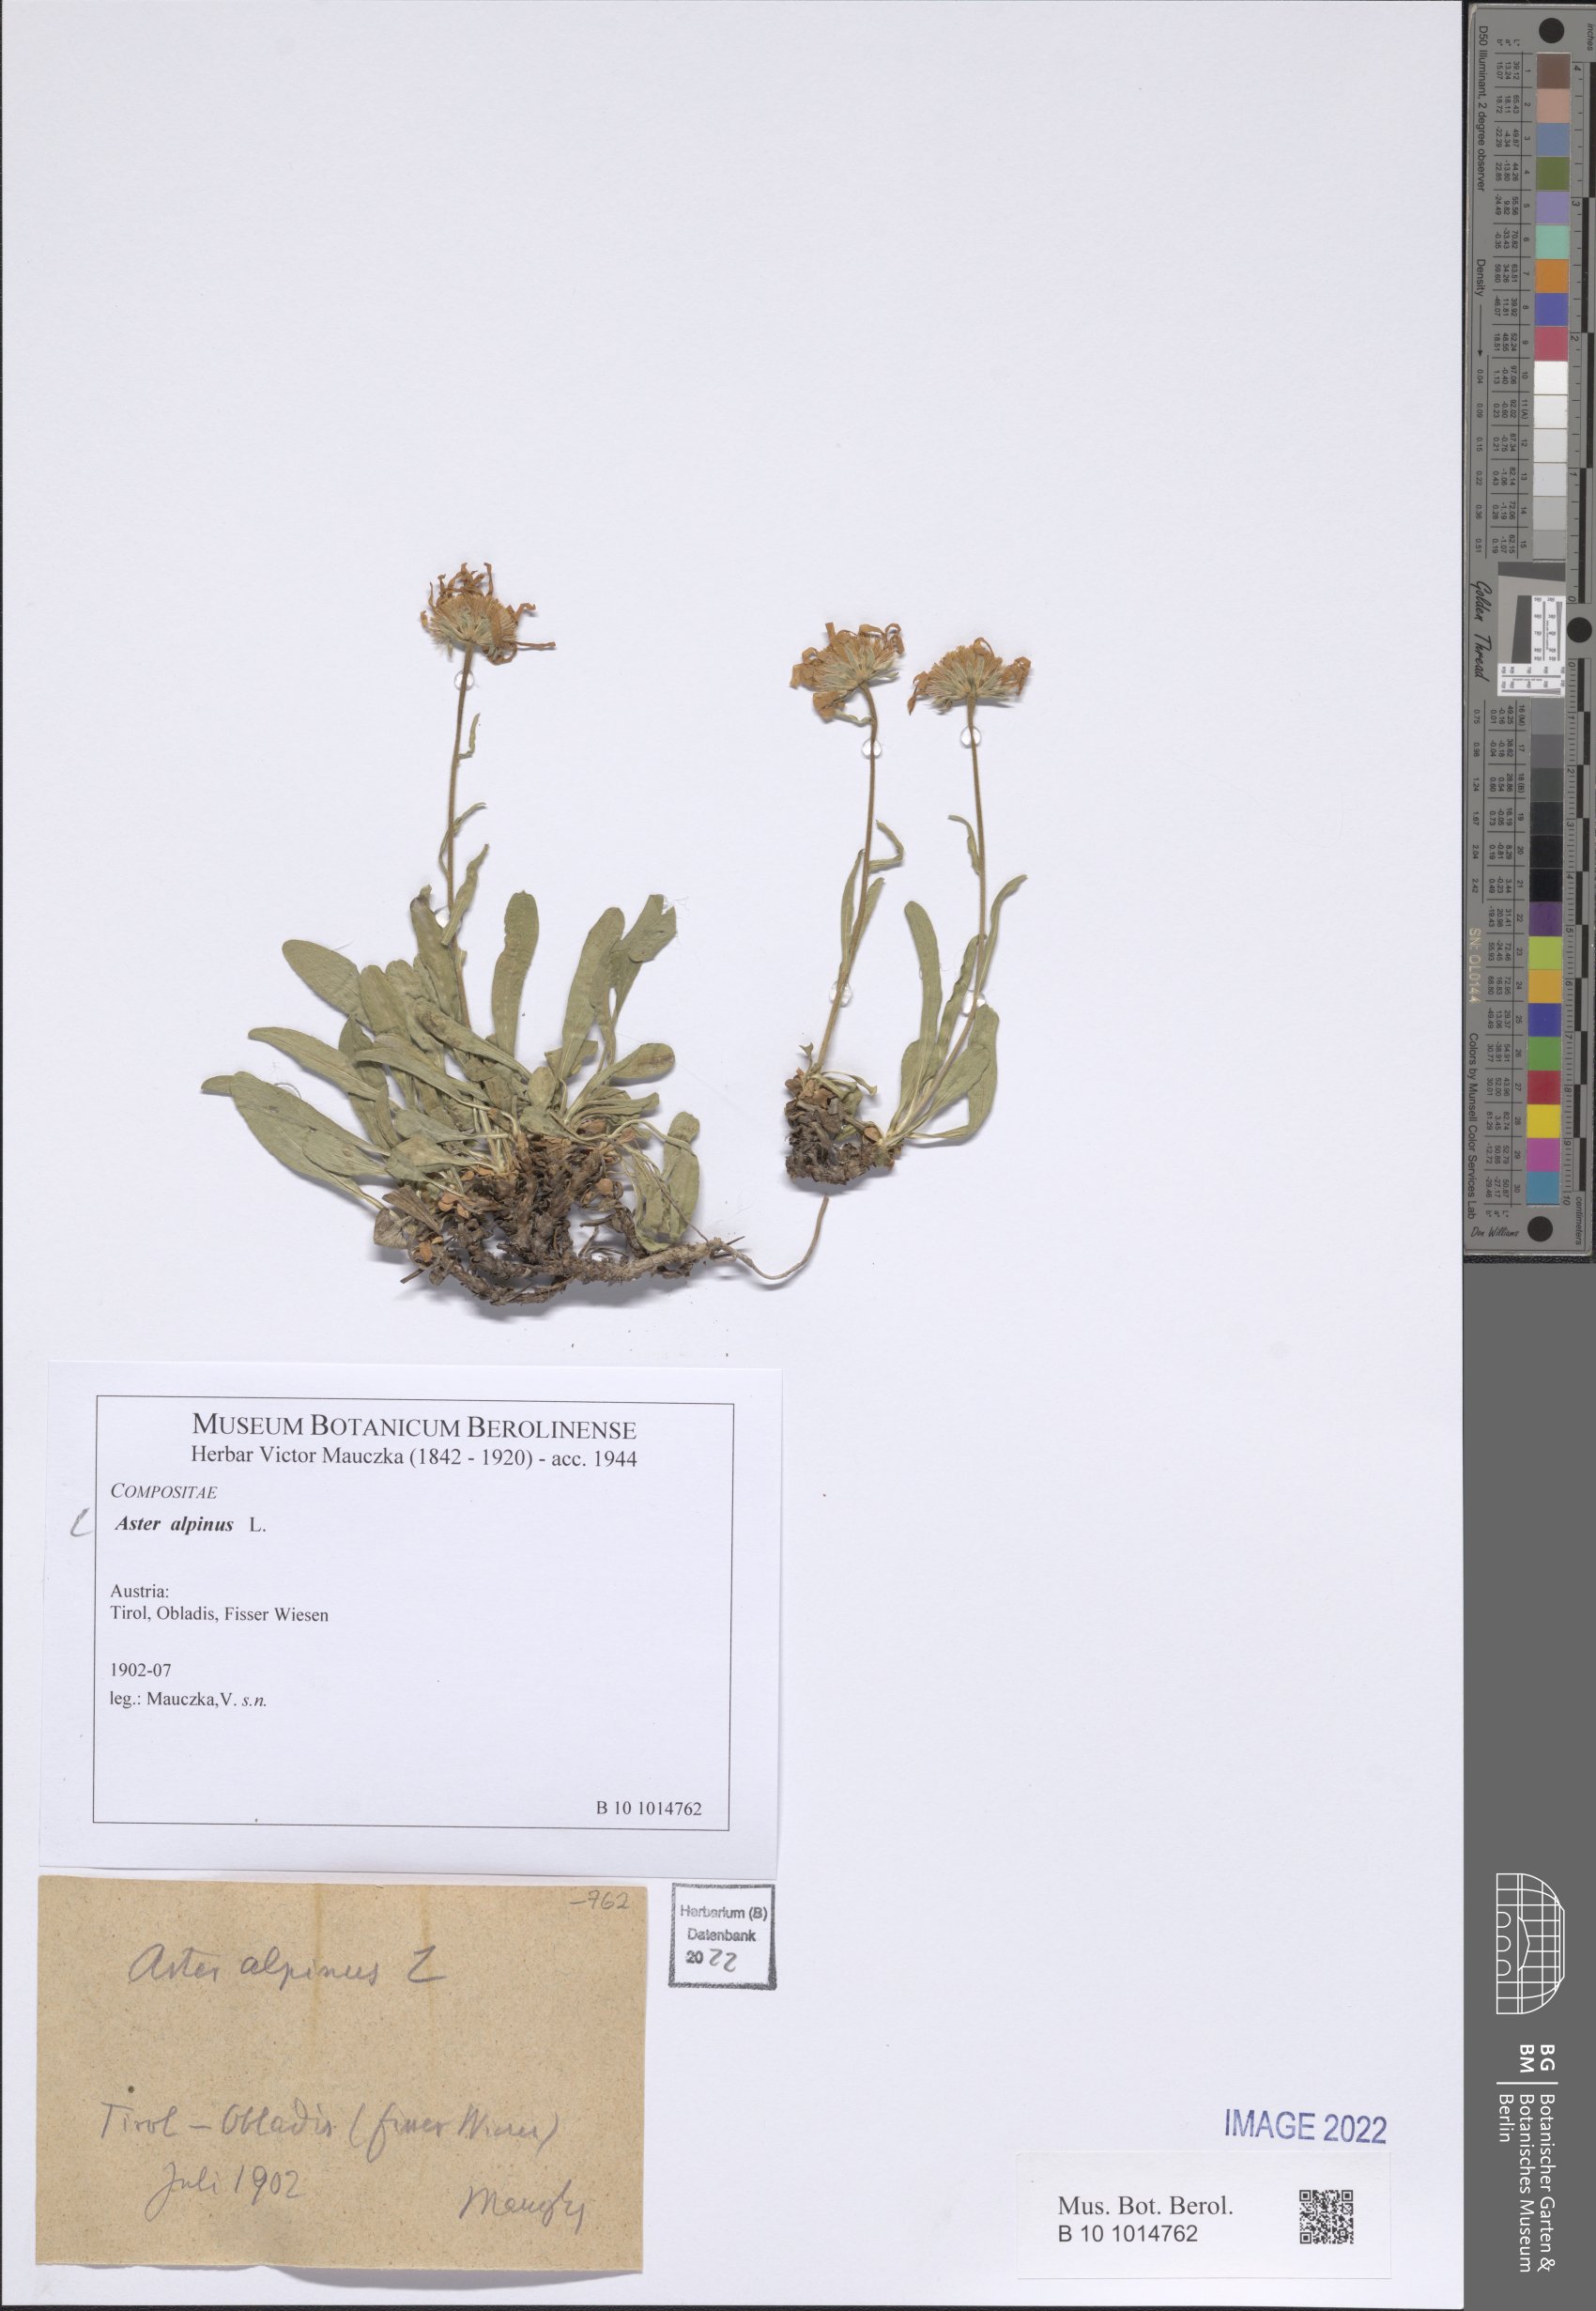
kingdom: Plantae
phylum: Tracheophyta
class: Magnoliopsida
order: Asterales
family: Asteraceae
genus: Aster
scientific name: Aster alpinus
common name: Alpine aster
